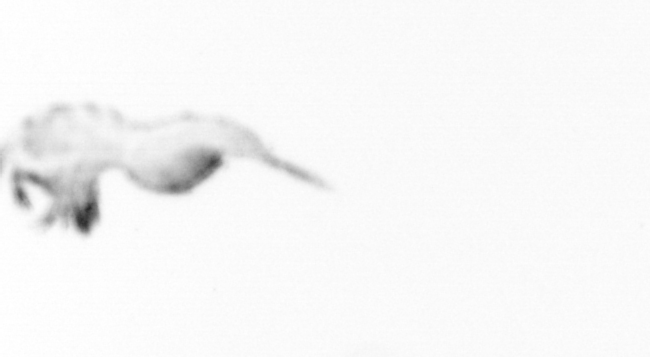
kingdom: Animalia
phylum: Annelida
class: Polychaeta
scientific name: Polychaeta
